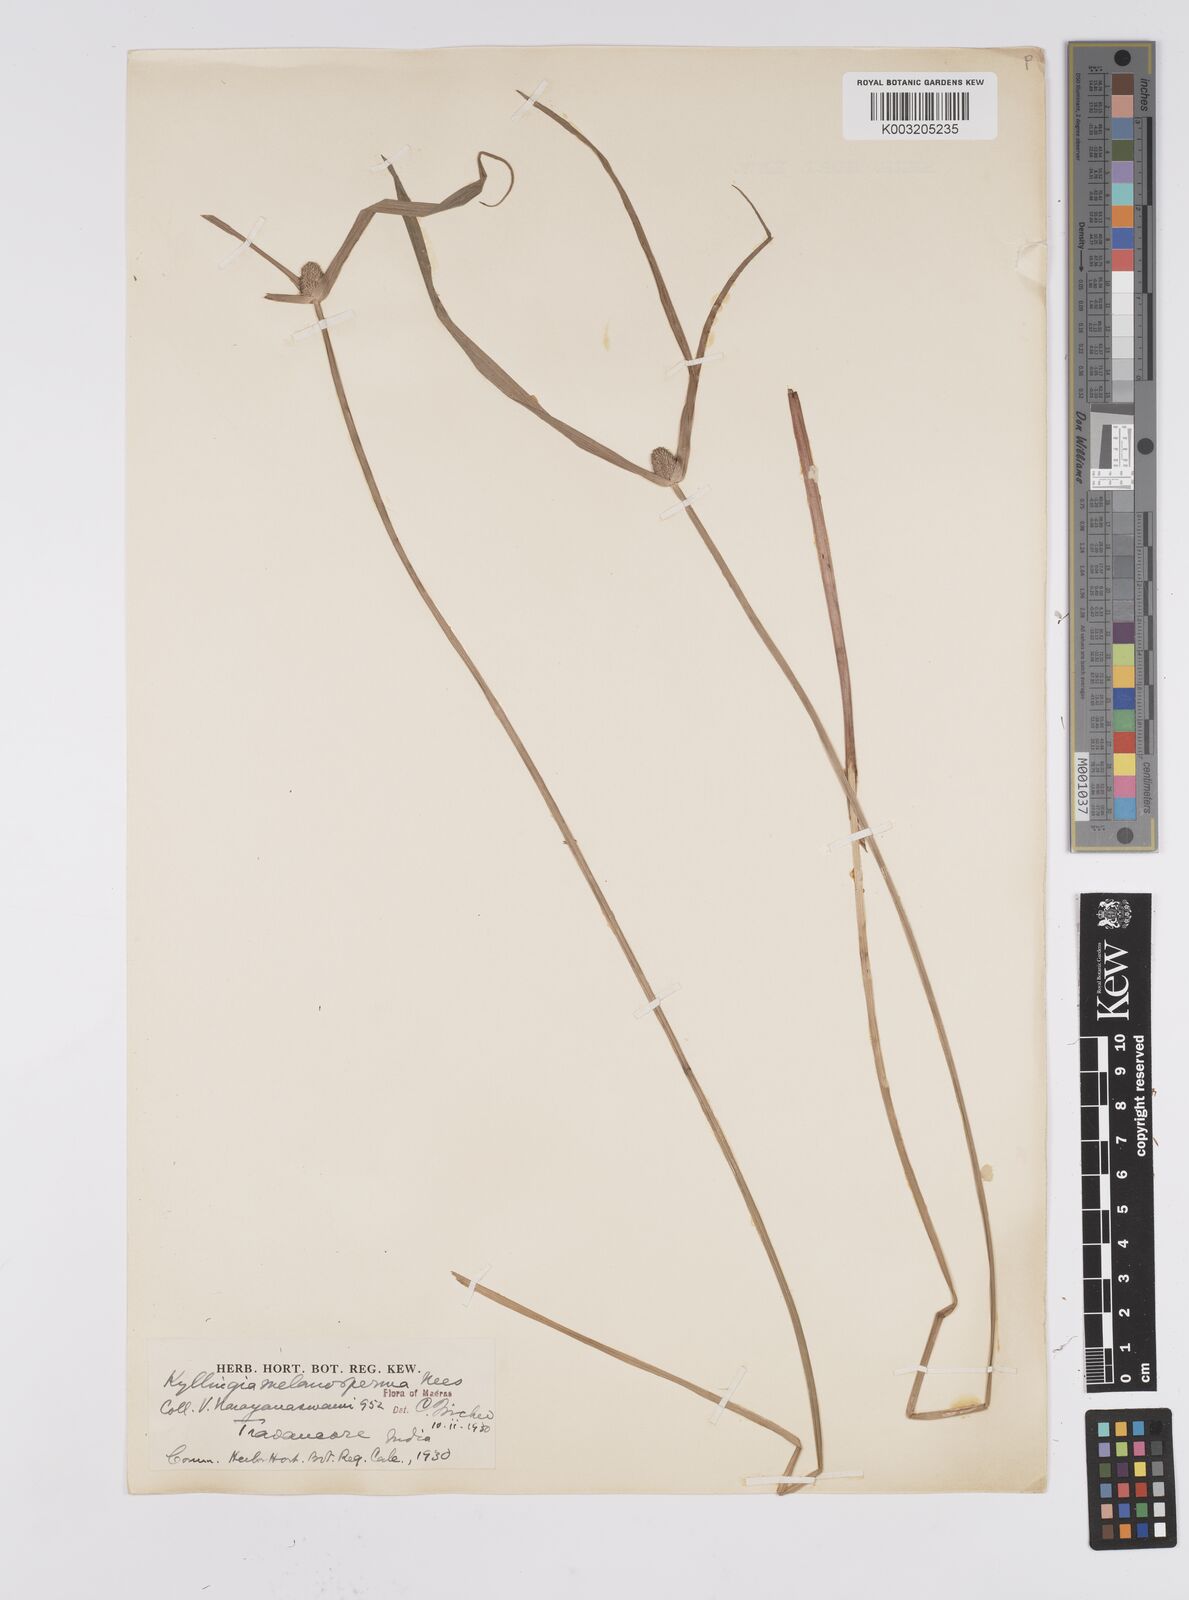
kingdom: Plantae
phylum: Tracheophyta
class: Liliopsida
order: Poales
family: Cyperaceae
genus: Cyperus
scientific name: Cyperus melanospermus
